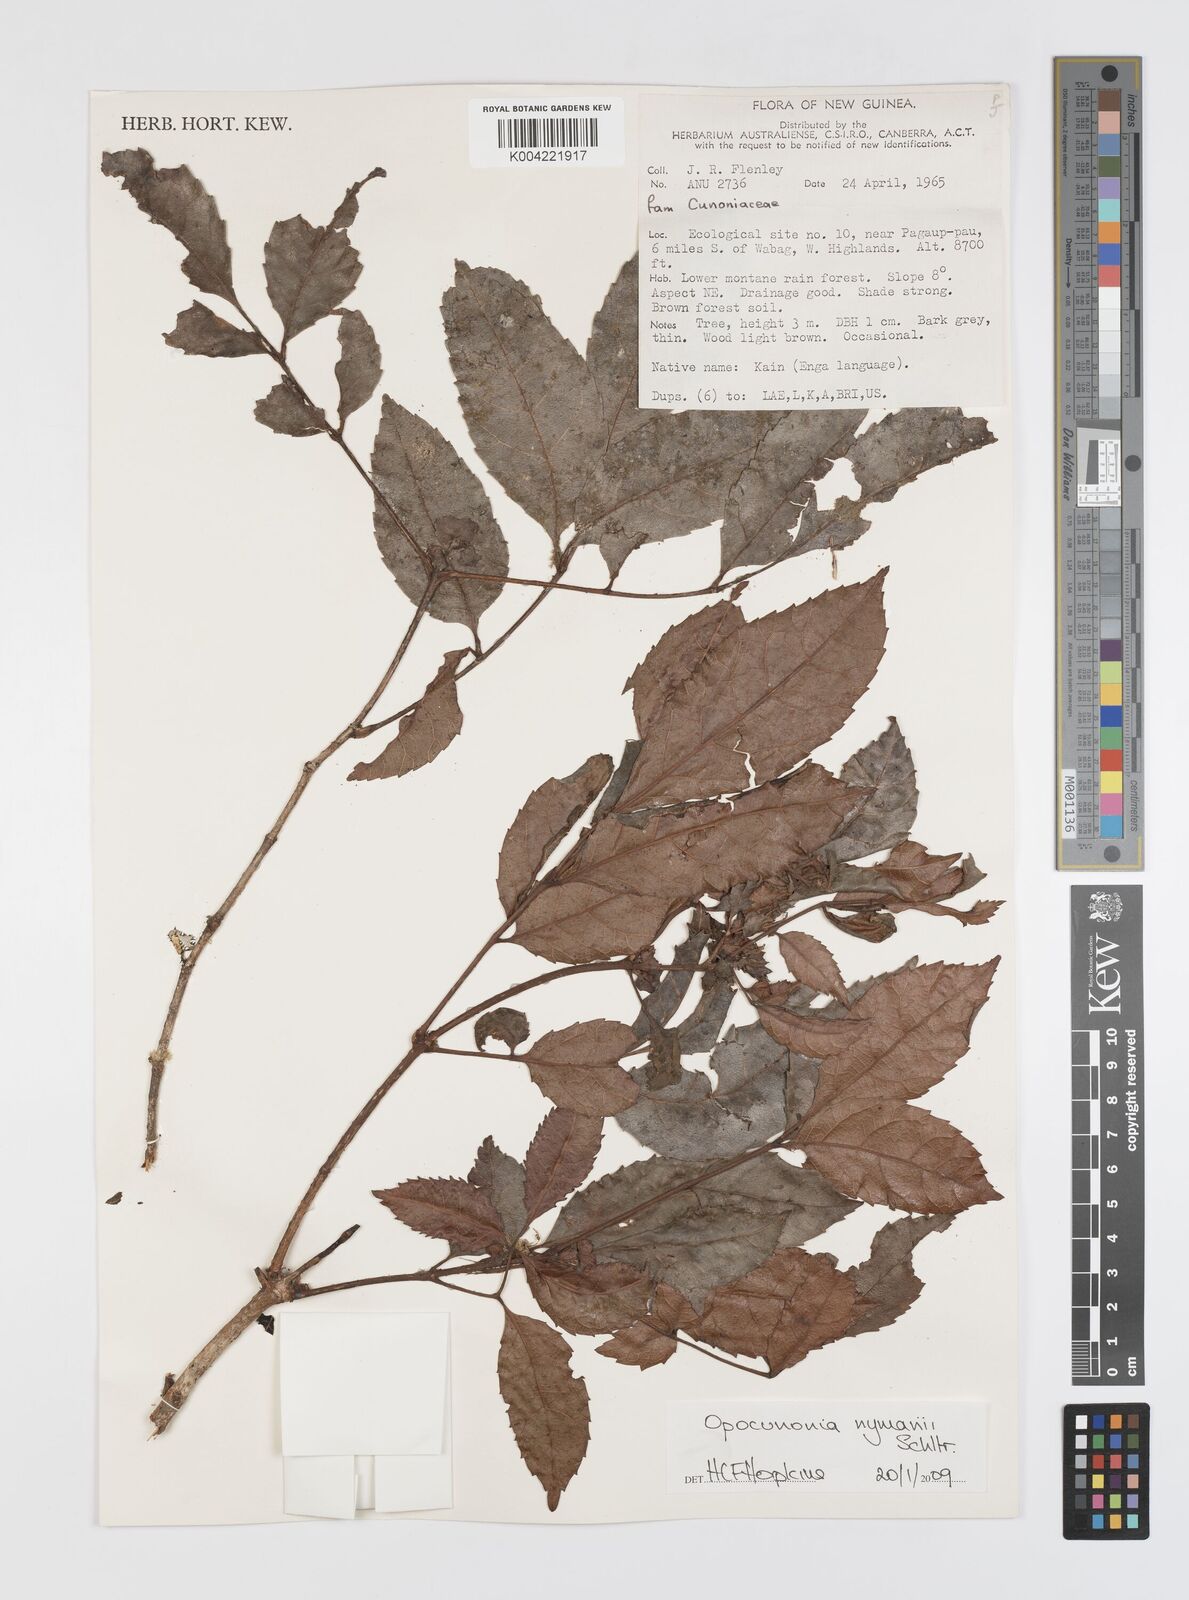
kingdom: Plantae
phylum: Tracheophyta
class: Magnoliopsida
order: Oxalidales
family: Cunoniaceae
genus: Opocunonia
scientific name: Opocunonia nymanii
